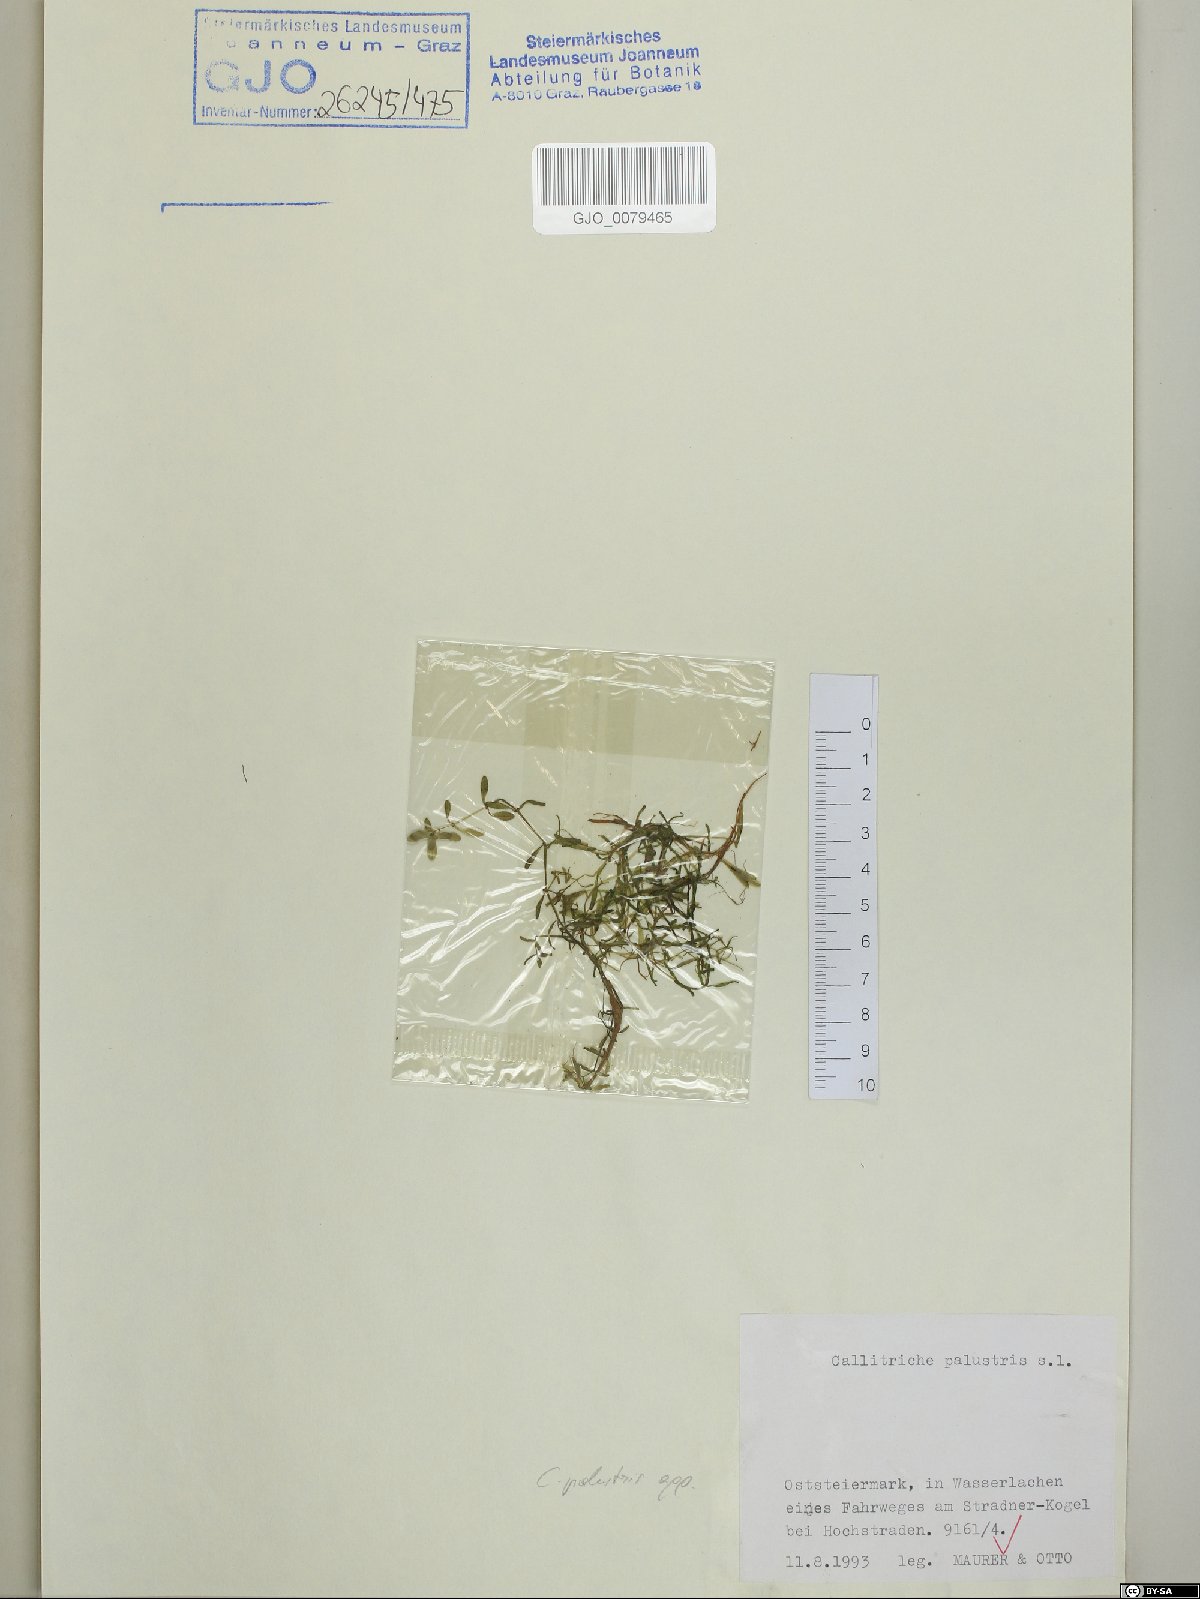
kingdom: Plantae
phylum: Tracheophyta
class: Magnoliopsida
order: Lamiales
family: Plantaginaceae
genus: Callitriche
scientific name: Callitriche palustris
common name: Spring water-starwort
